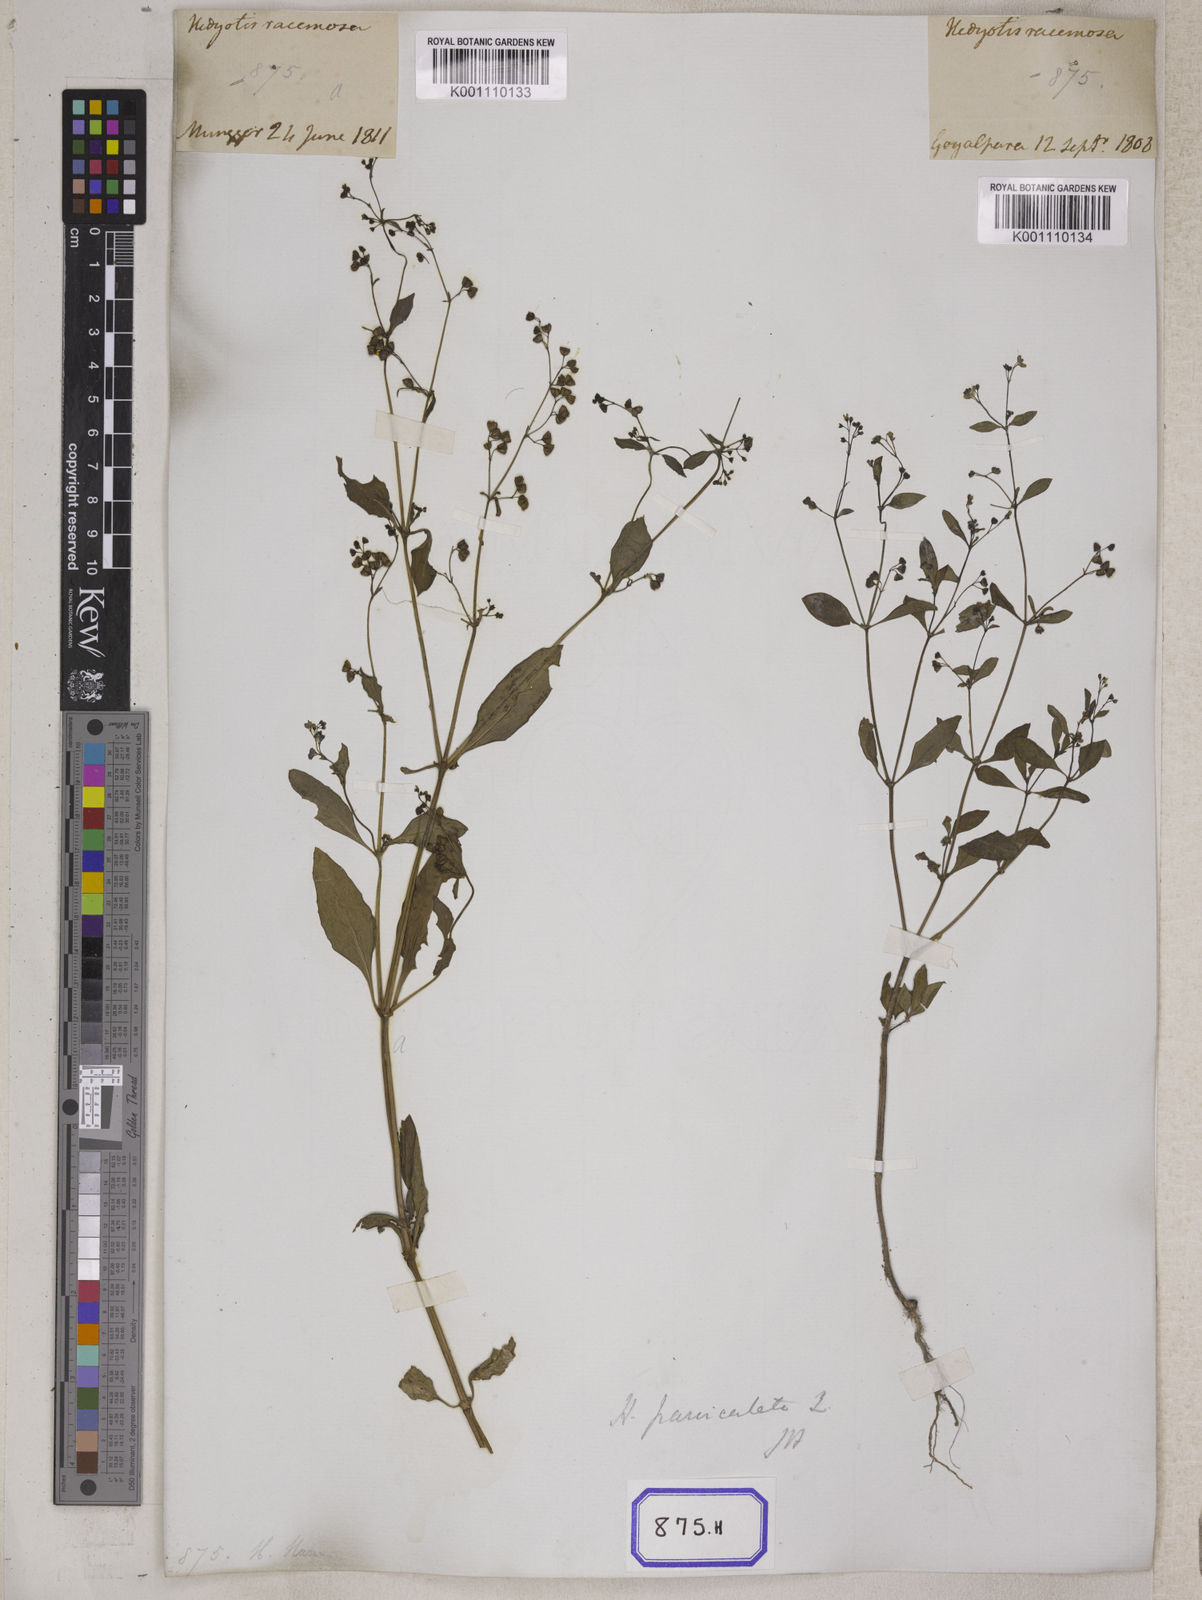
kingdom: Plantae
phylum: Tracheophyta
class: Magnoliopsida
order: Gentianales
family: Rubiaceae
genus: Leptopetalum
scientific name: Leptopetalum racemosum
